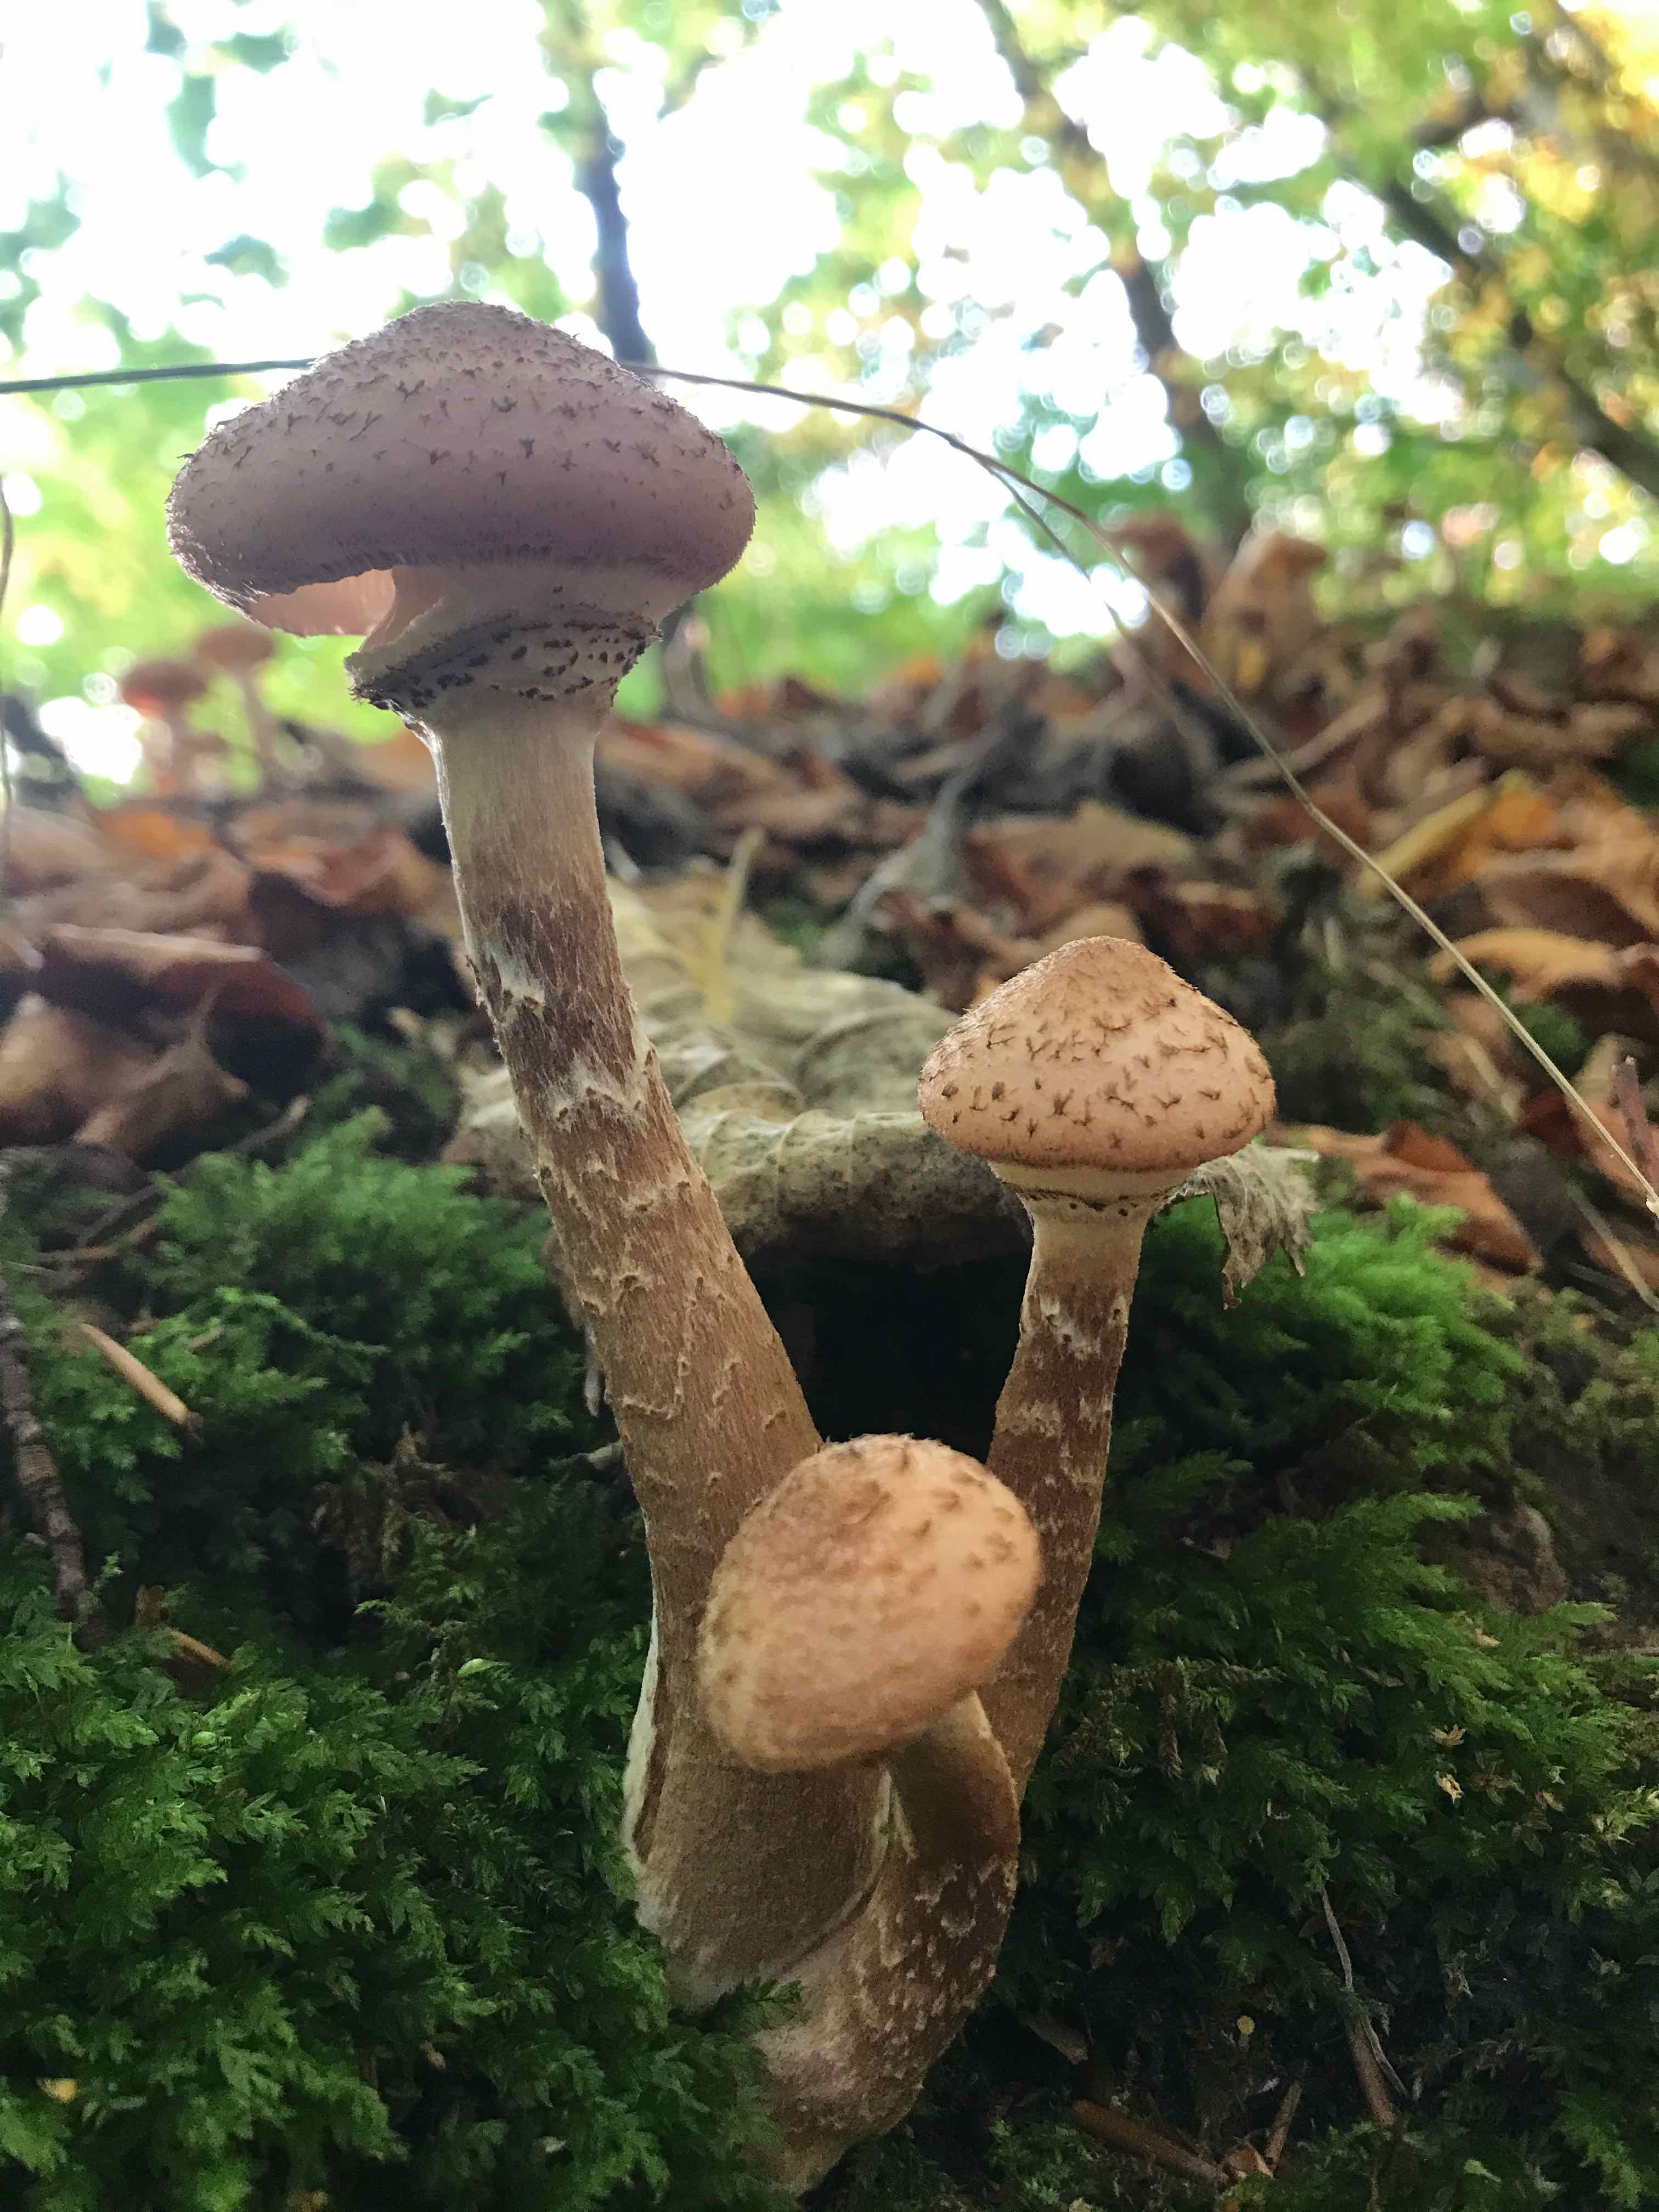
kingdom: Fungi
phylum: Basidiomycota
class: Agaricomycetes
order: Agaricales
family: Physalacriaceae
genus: Armillaria
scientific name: Armillaria lutea
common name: køllestokket honningsvamp
